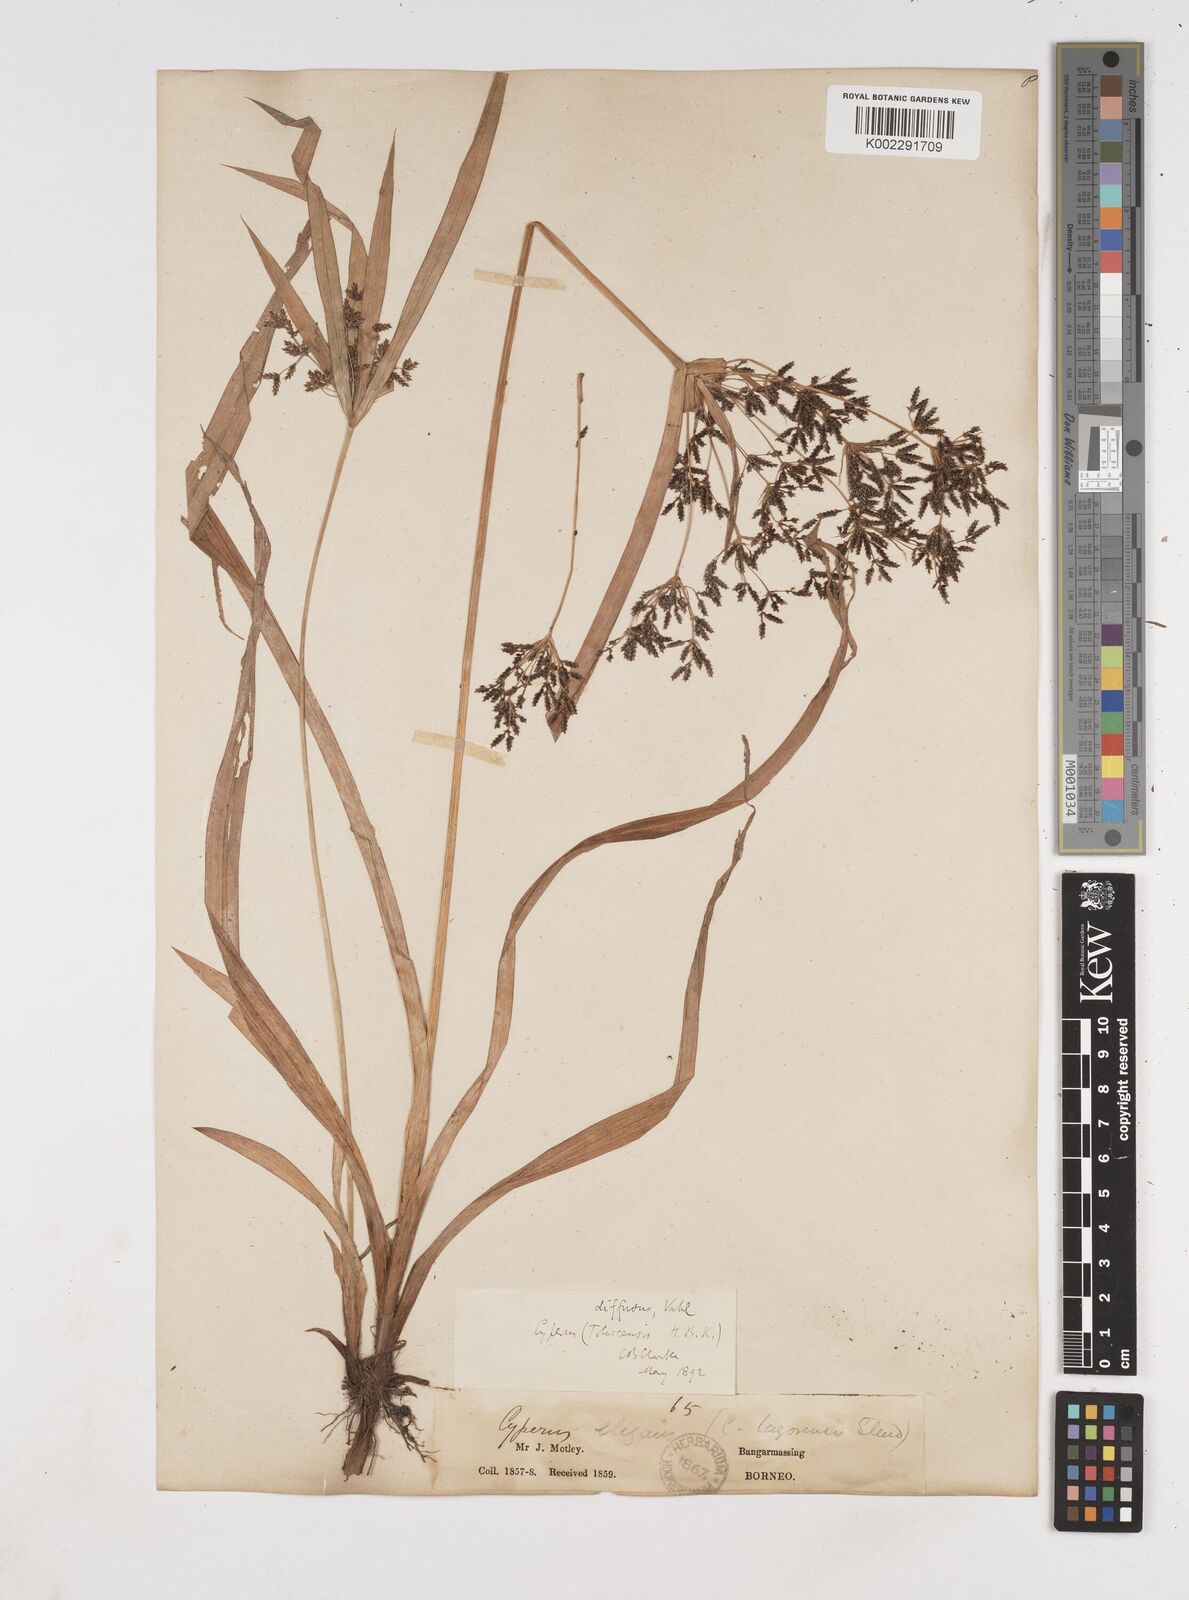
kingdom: Plantae
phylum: Tracheophyta
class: Liliopsida
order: Poales
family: Cyperaceae
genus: Cyperus
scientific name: Cyperus diffusus
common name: Dwarf umbrella grass
